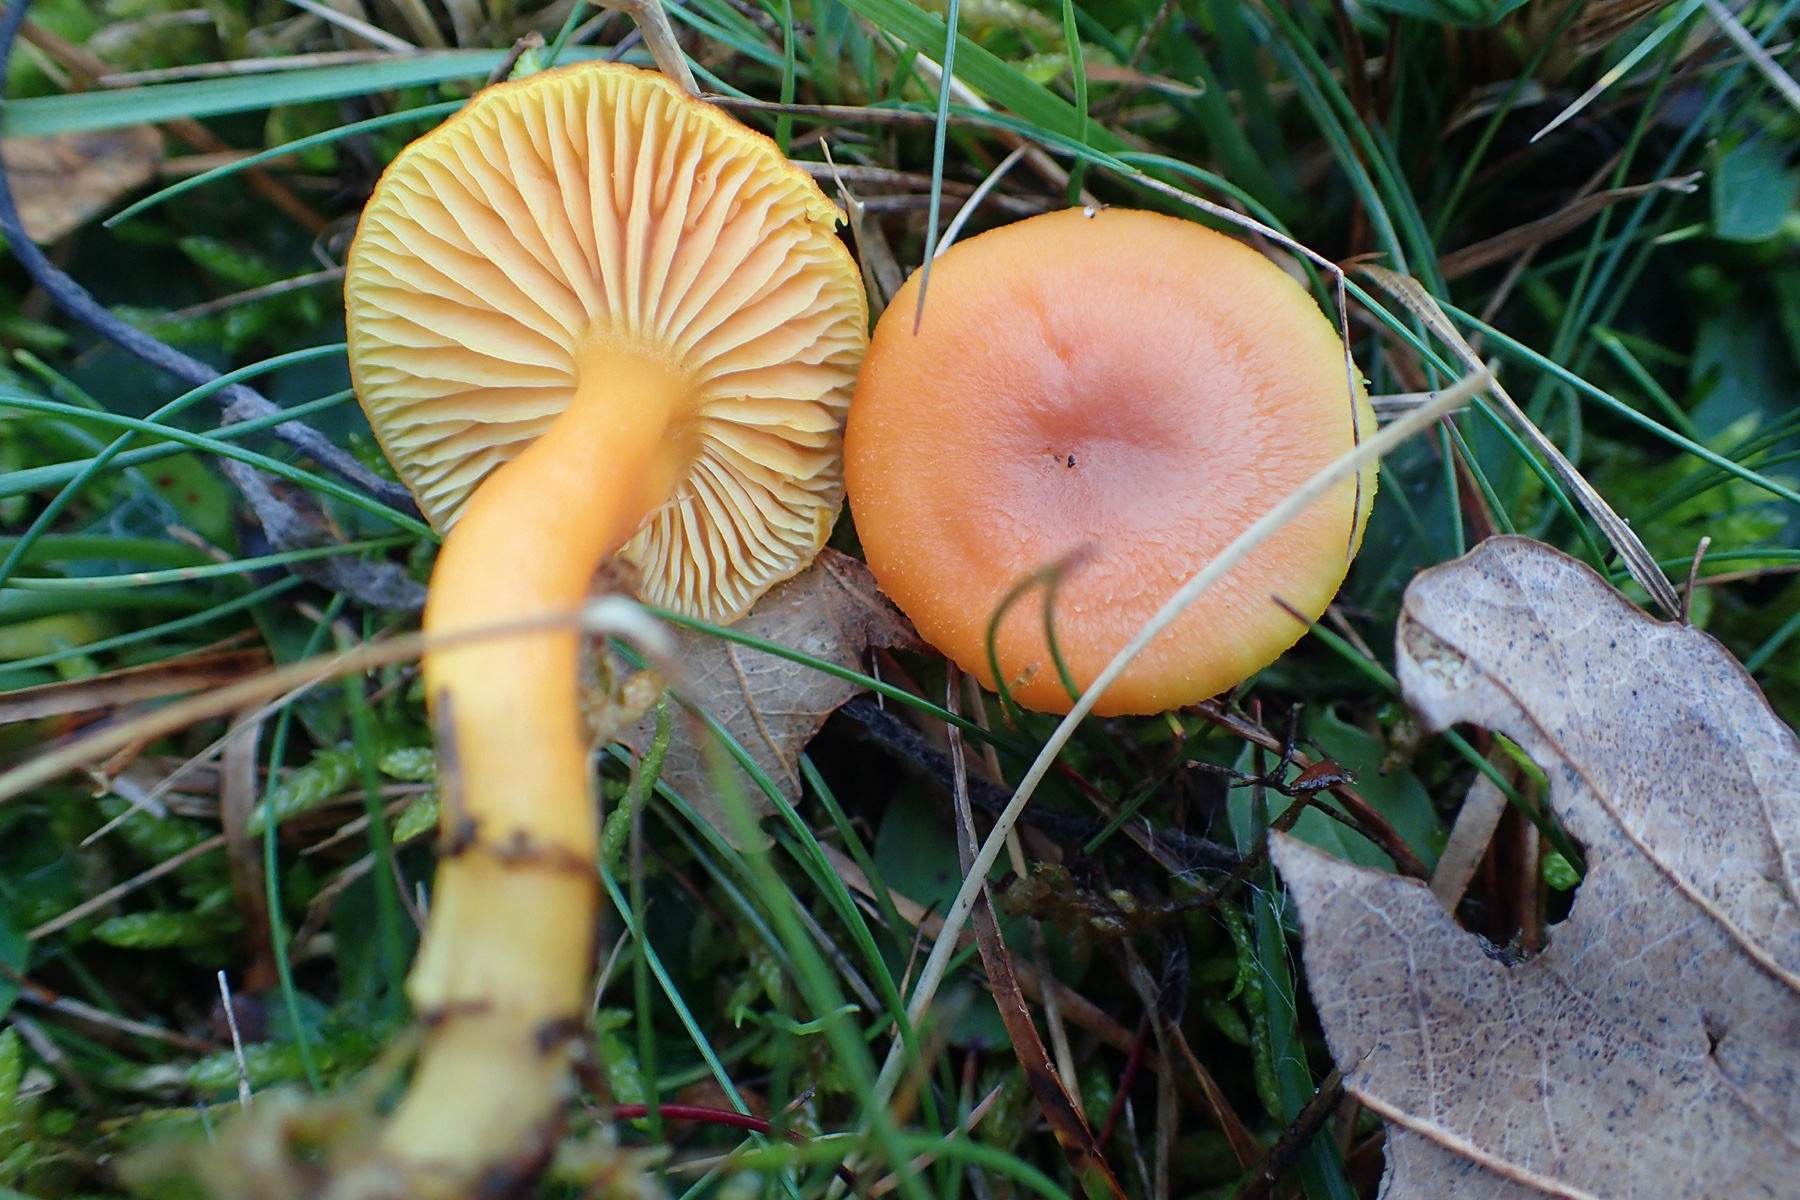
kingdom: Fungi
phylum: Basidiomycota
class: Agaricomycetes
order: Agaricales
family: Hygrophoraceae
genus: Hygrocybe
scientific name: Hygrocybe miniata
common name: mønje-vokshat
